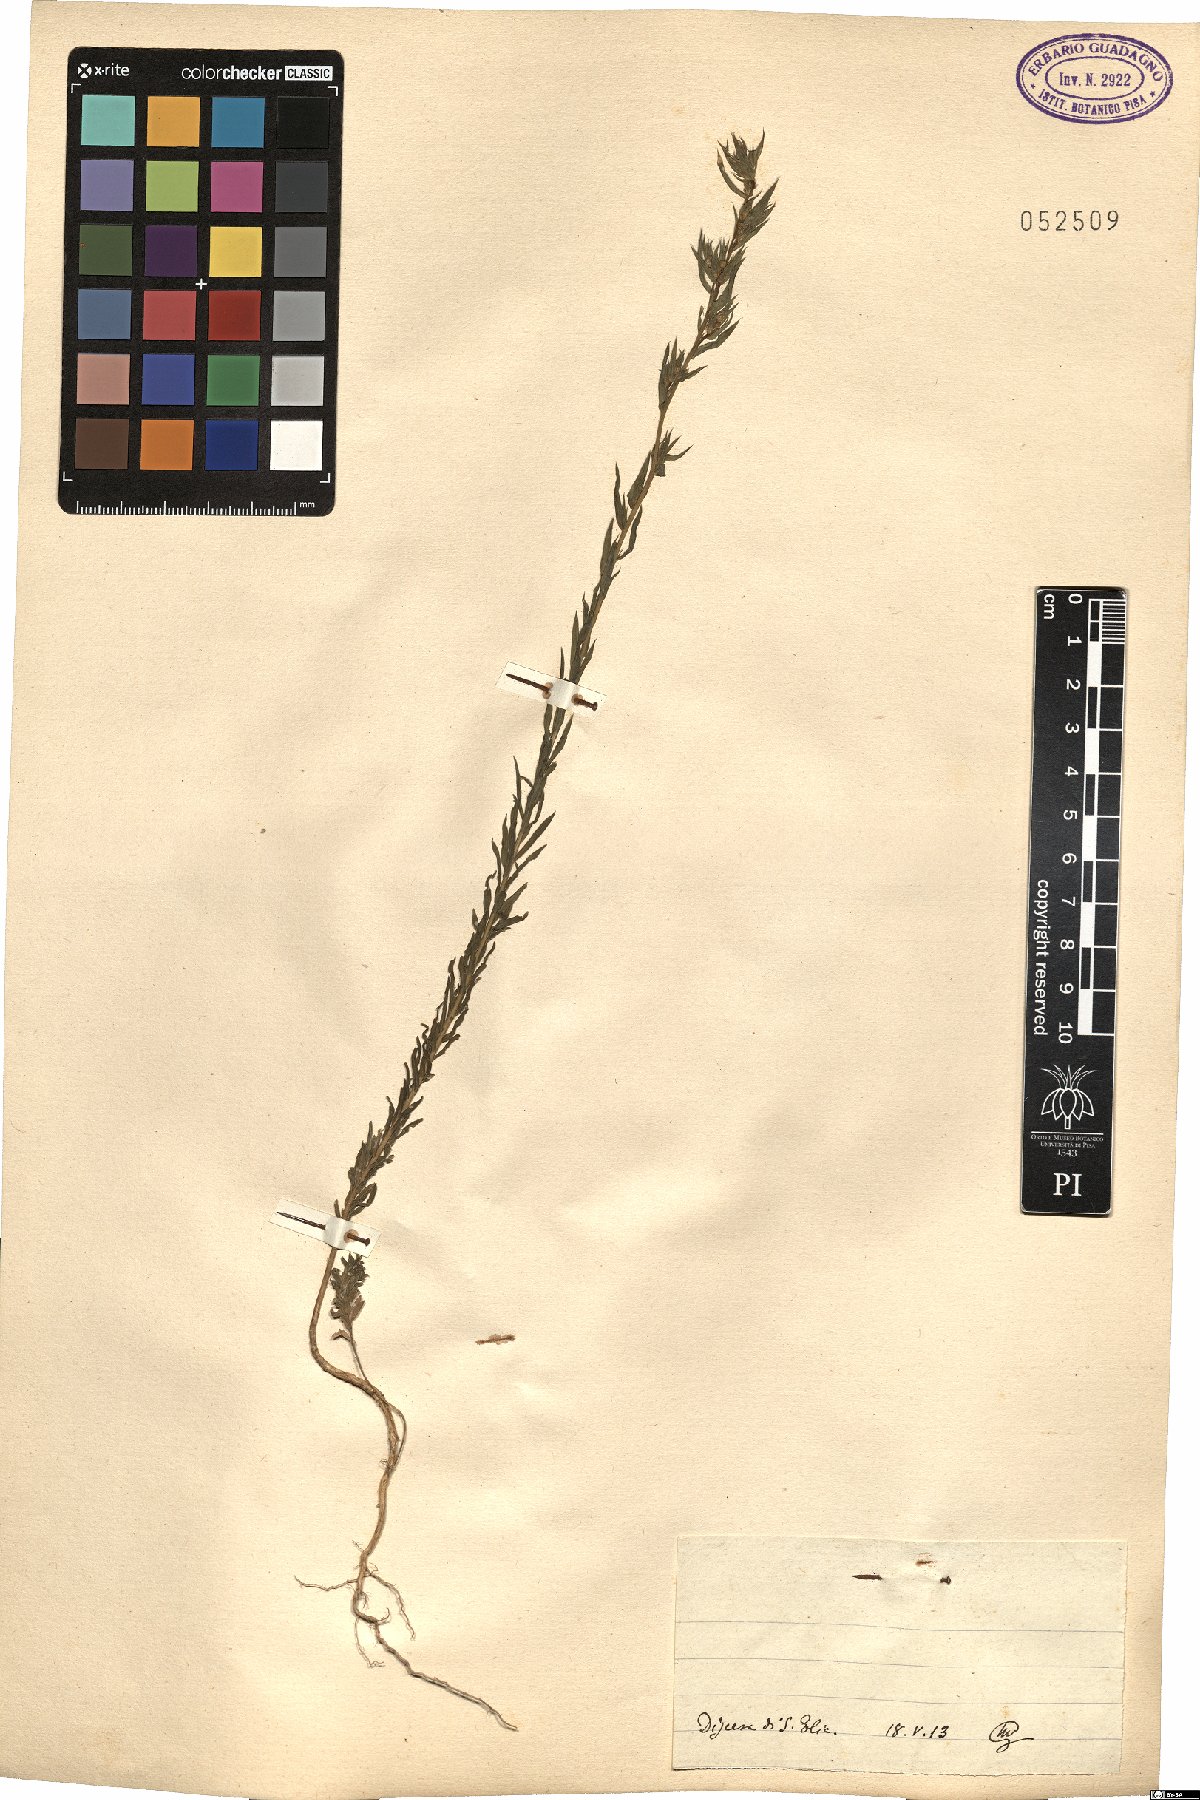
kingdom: Plantae
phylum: Tracheophyta
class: Magnoliopsida
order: Malpighiales
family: Linaceae
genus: Linum
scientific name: Linum
